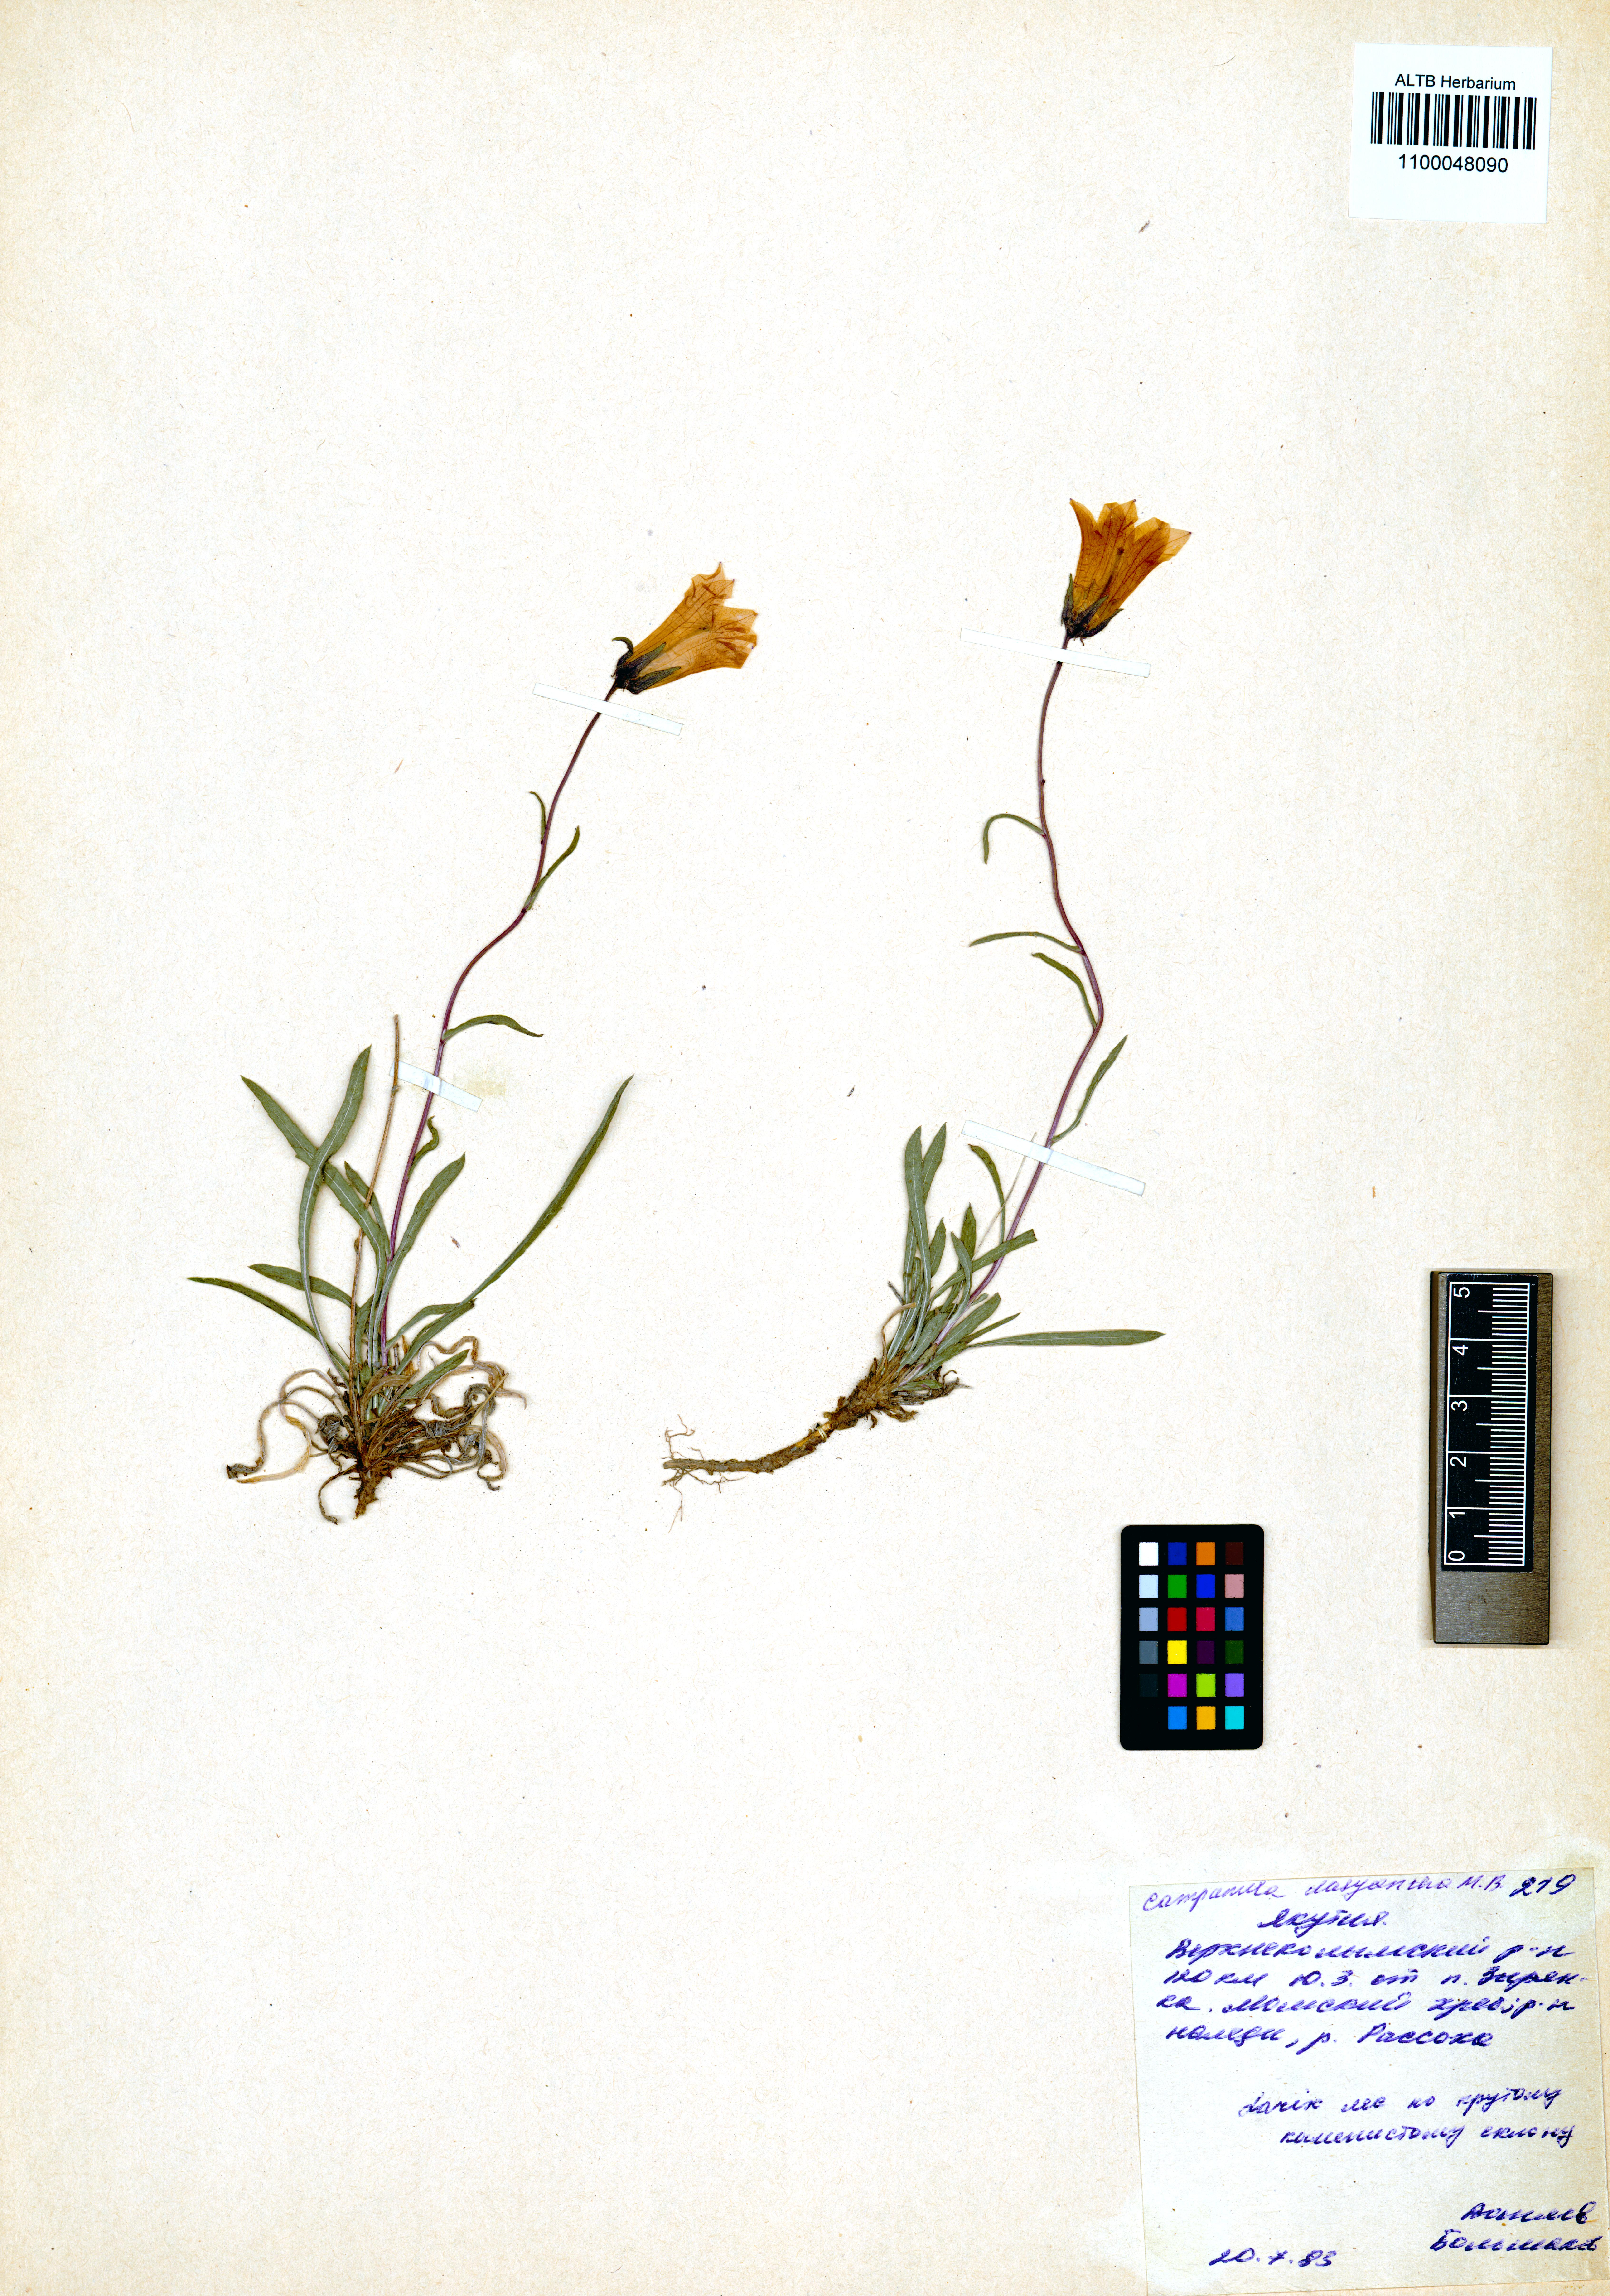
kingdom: Plantae
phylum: Tracheophyta
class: Magnoliopsida
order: Asterales
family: Campanulaceae
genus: Campanula
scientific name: Campanula dasyantha
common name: Hairyflower bellflower
